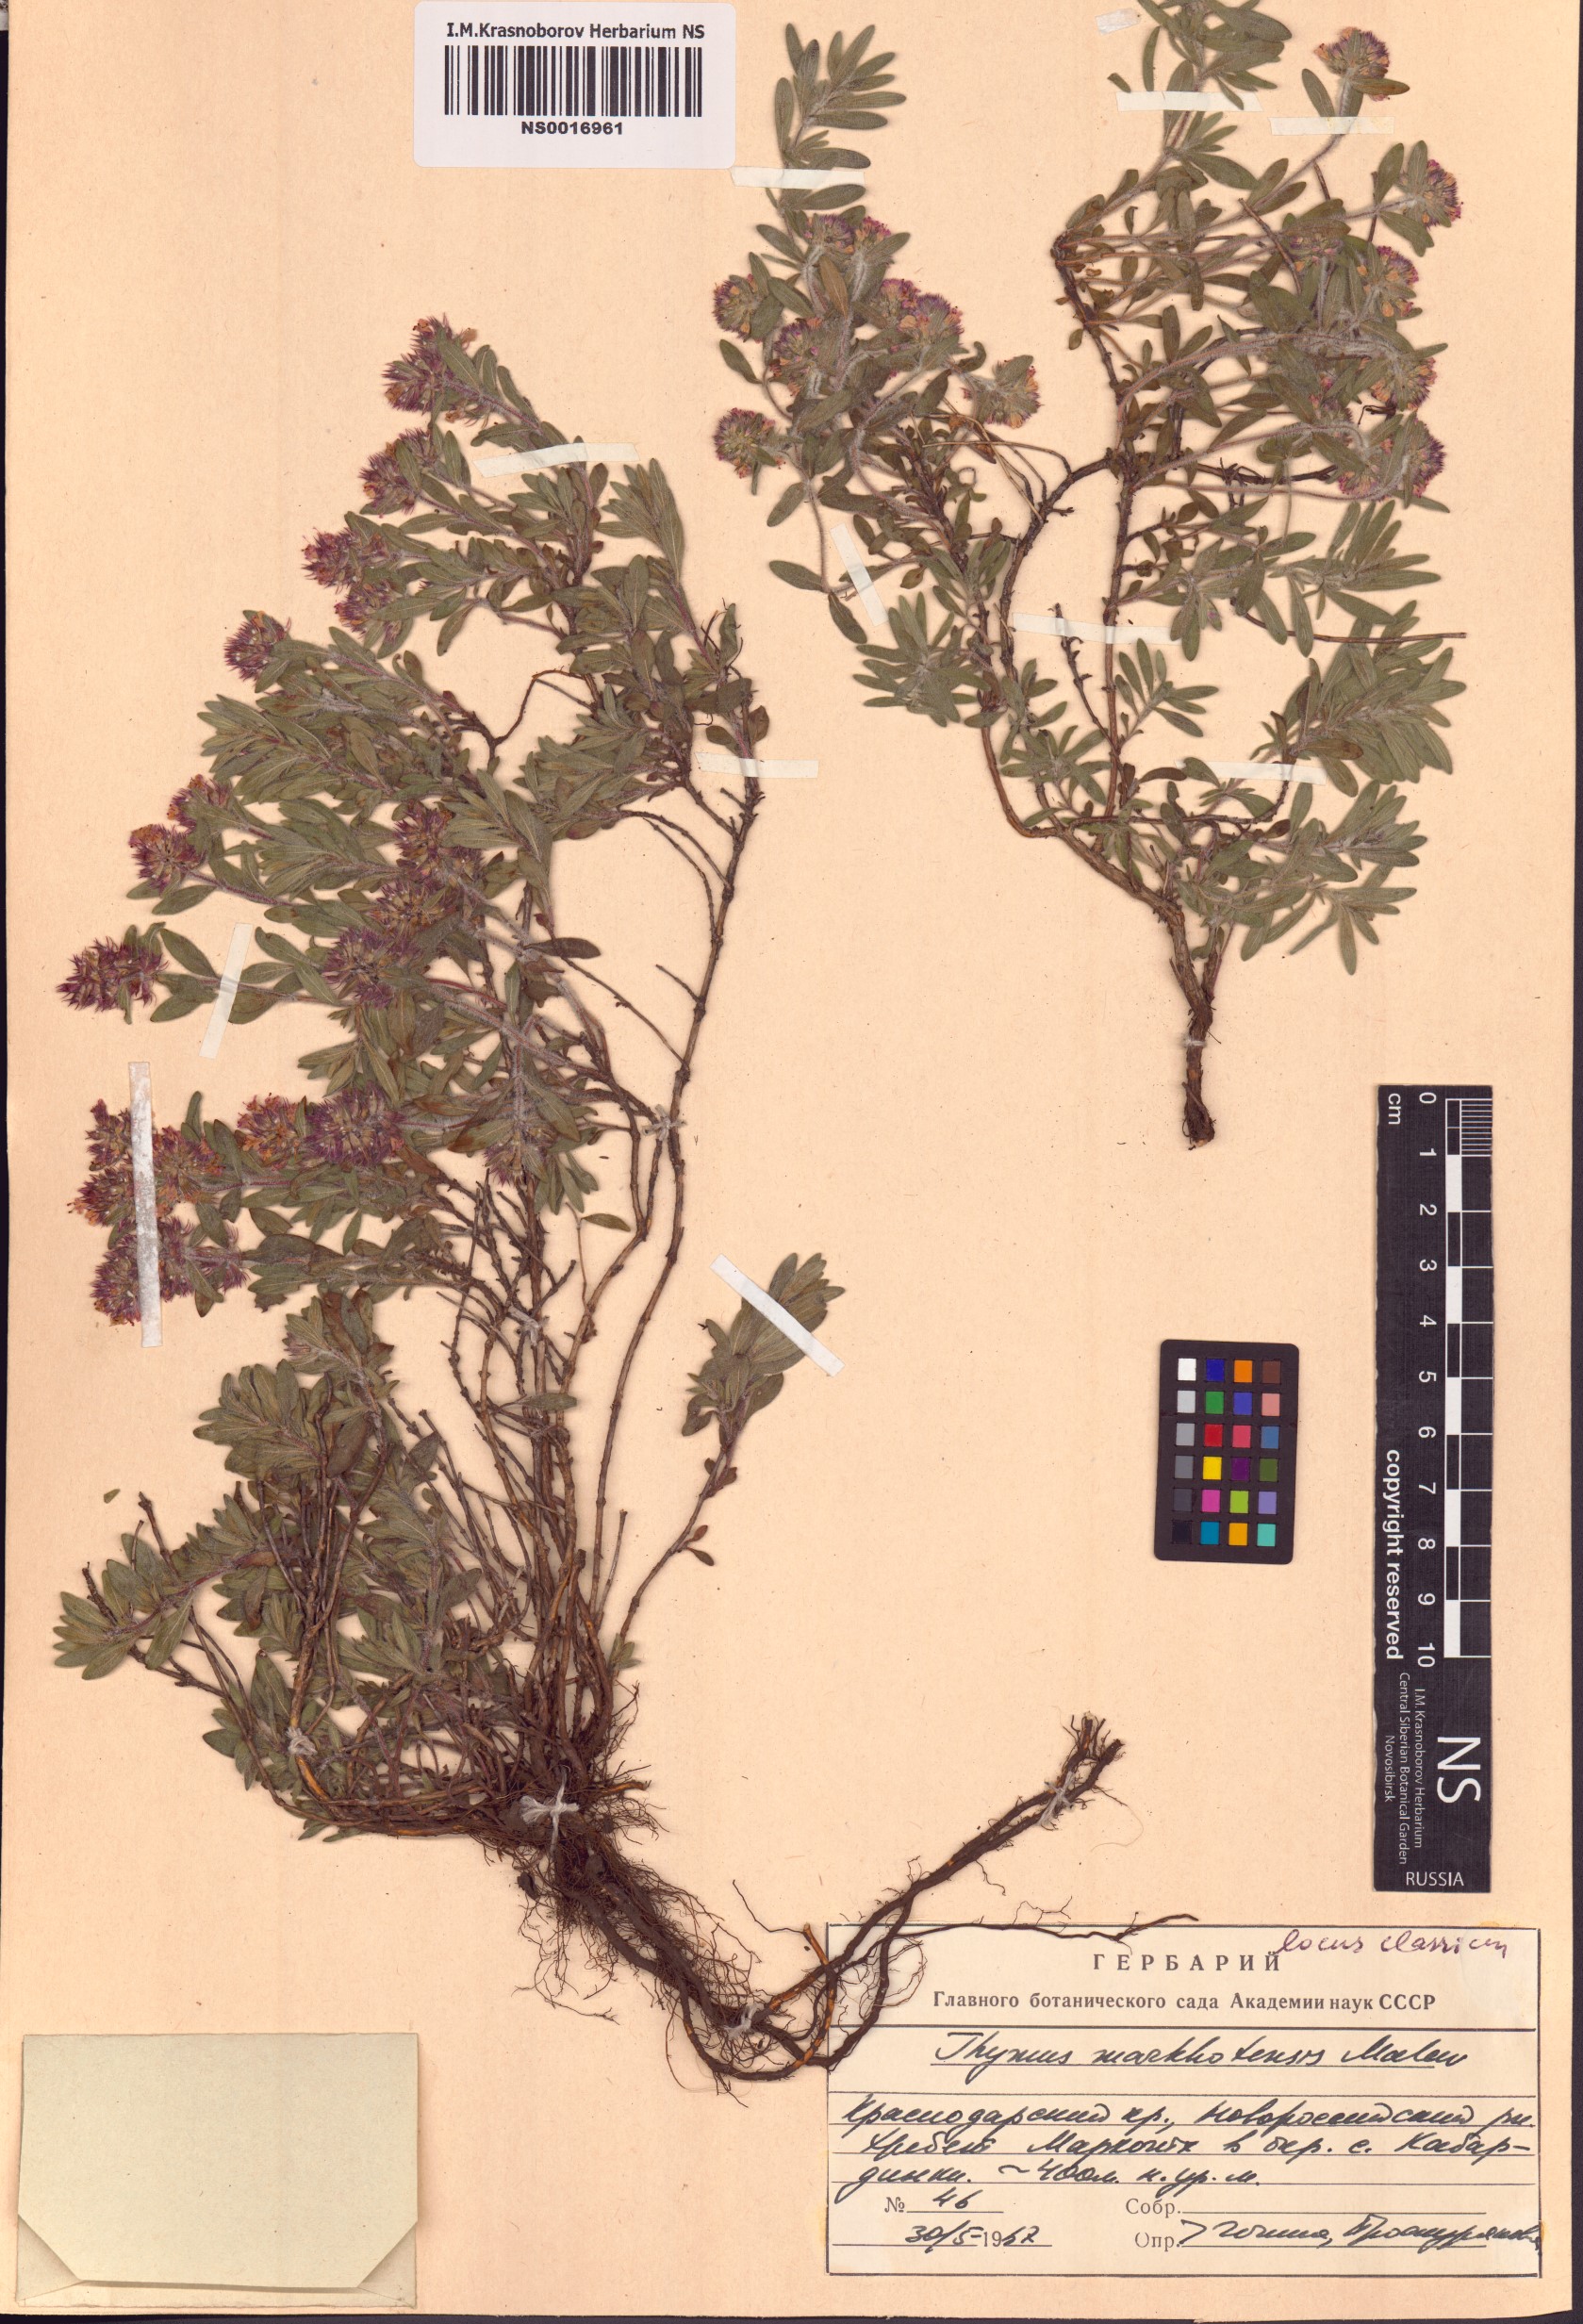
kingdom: Plantae
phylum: Tracheophyta
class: Magnoliopsida
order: Lamiales
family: Lamiaceae
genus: Thymus
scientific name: Thymus markhotensis
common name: Markhotian thyme
